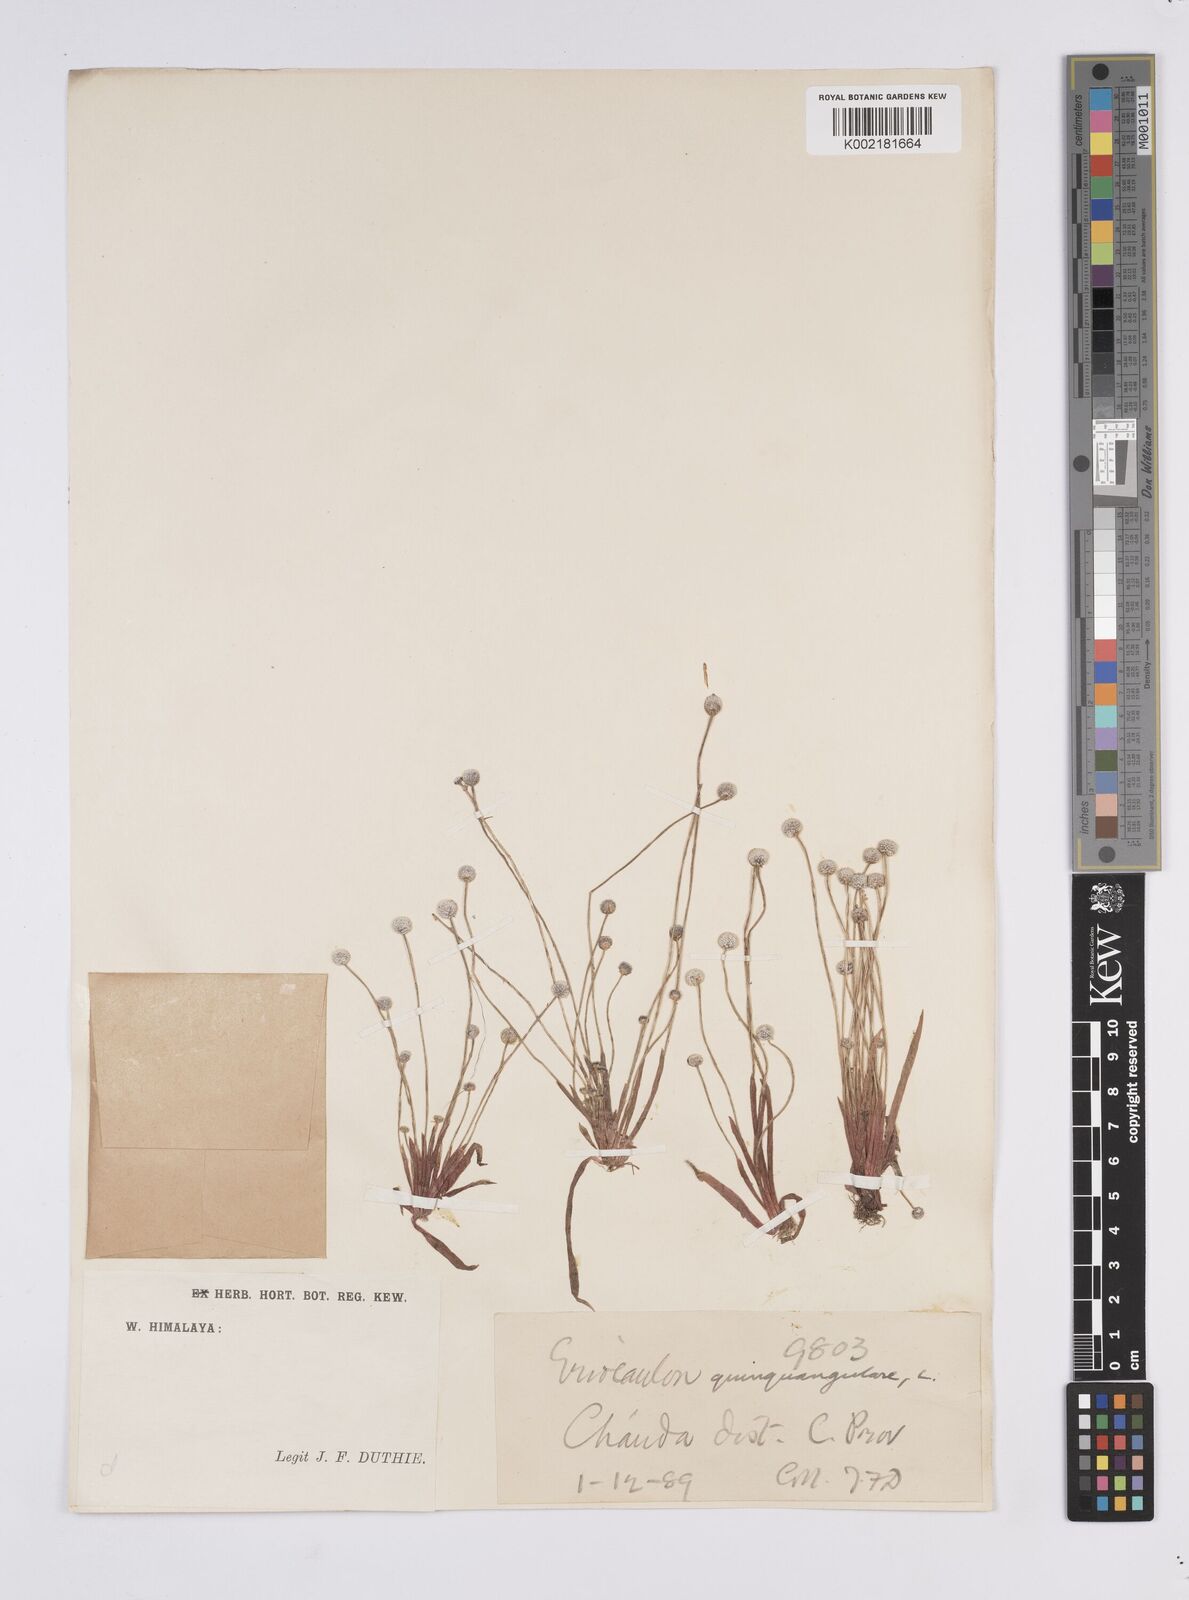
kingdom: Plantae
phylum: Tracheophyta
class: Liliopsida
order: Poales
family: Eriocaulaceae
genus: Eriocaulon
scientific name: Eriocaulon quinquangulare
